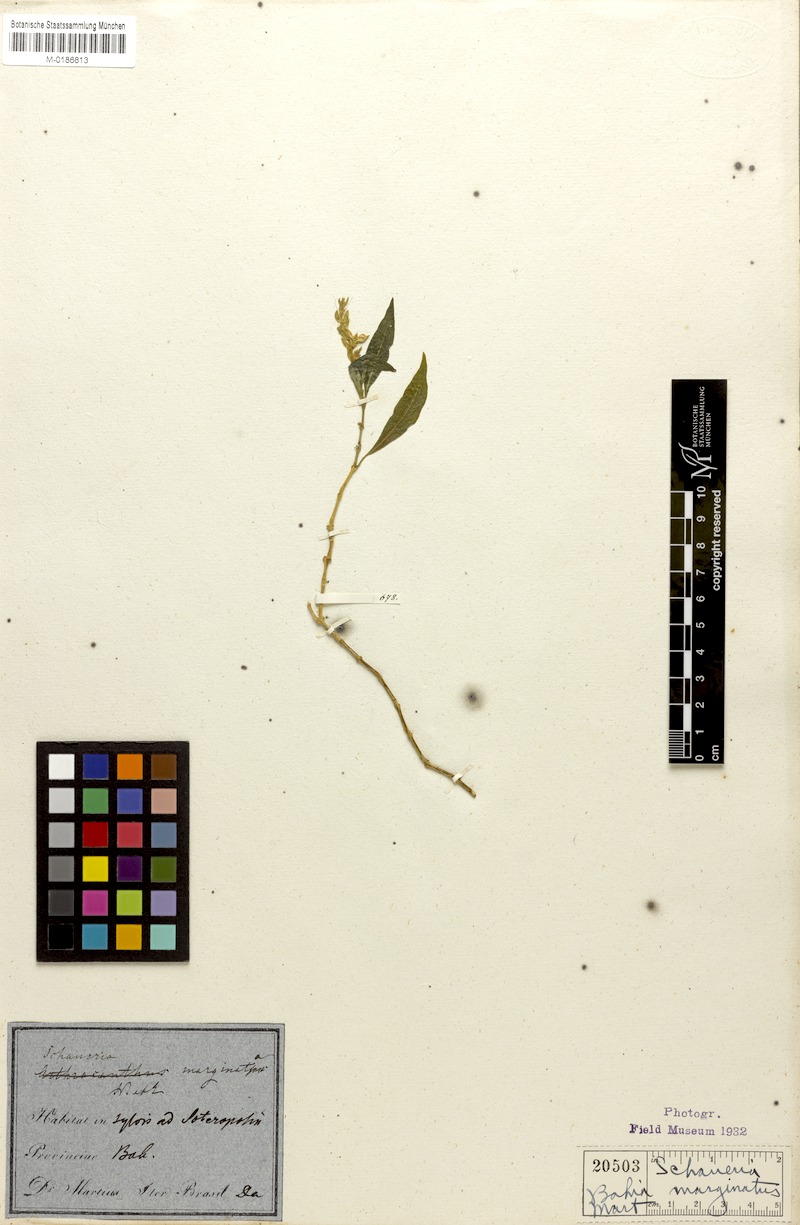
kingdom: Plantae
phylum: Tracheophyta
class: Magnoliopsida
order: Lamiales
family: Acanthaceae
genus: Schaueria
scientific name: Schaueria marginata
